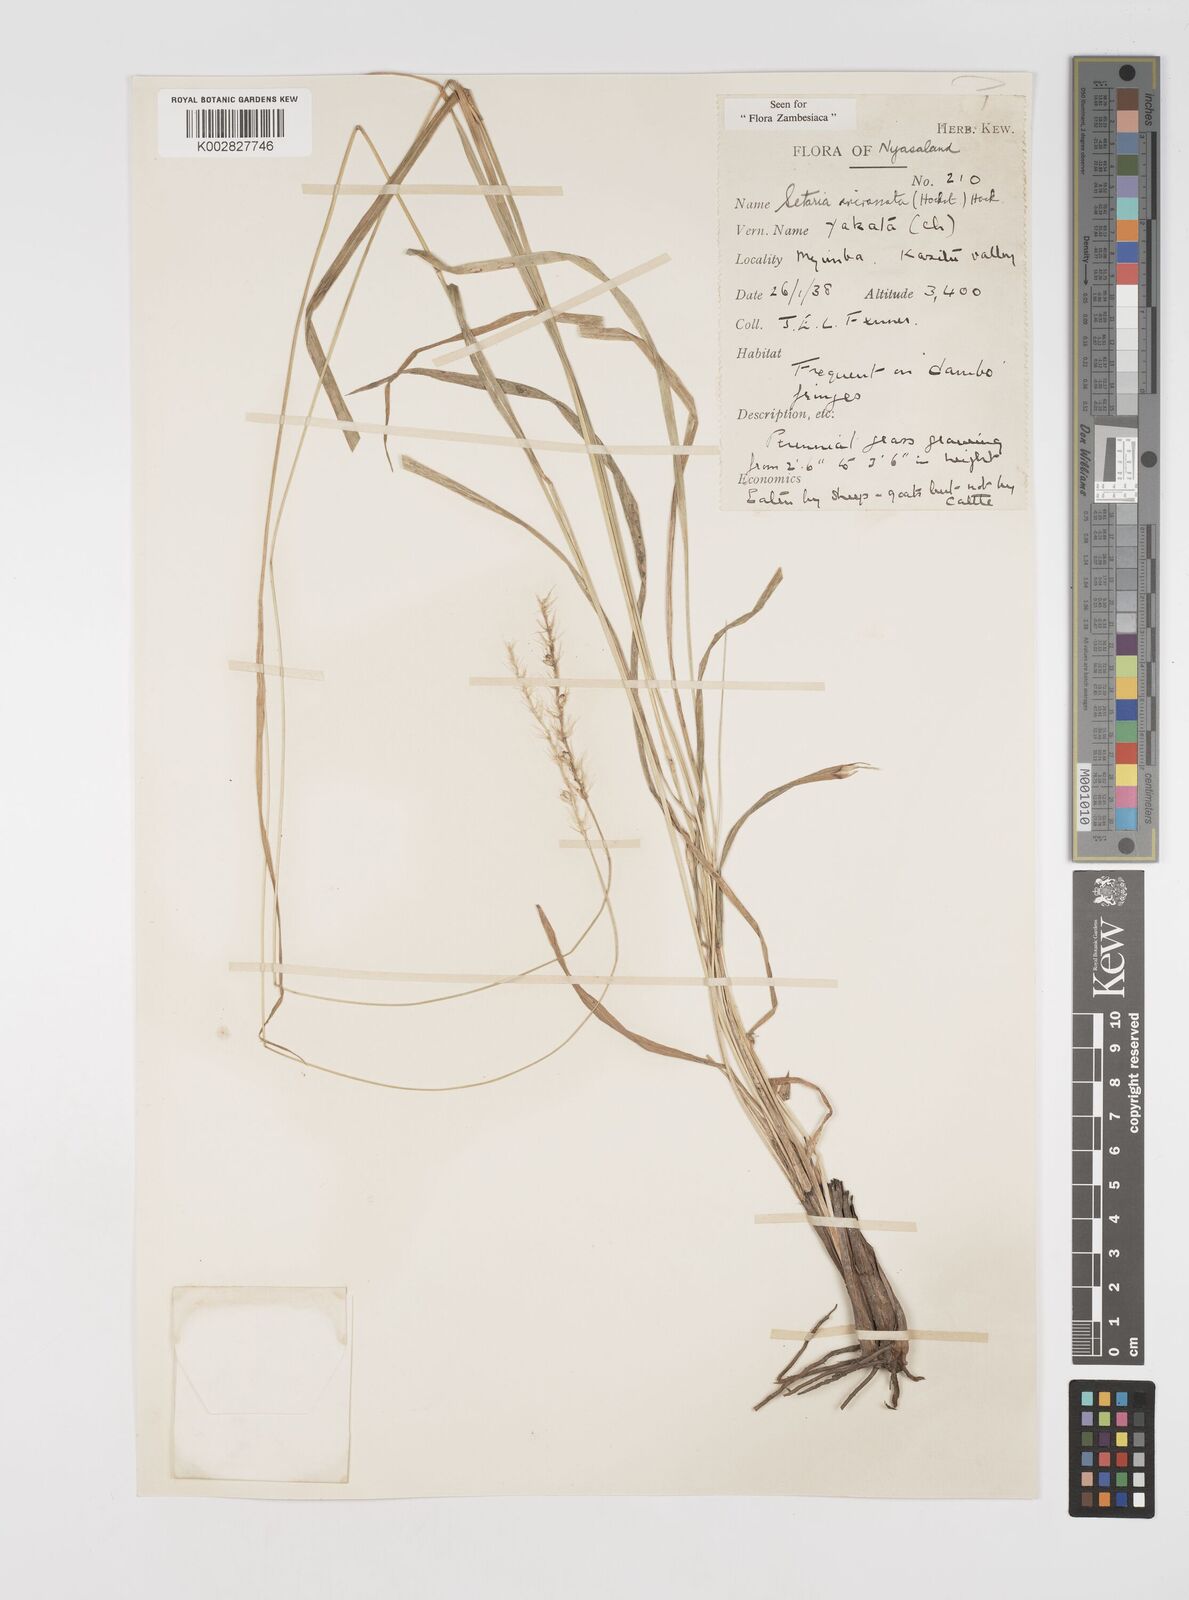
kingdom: Plantae
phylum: Tracheophyta
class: Liliopsida
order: Poales
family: Poaceae
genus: Setaria
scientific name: Setaria incrassata
